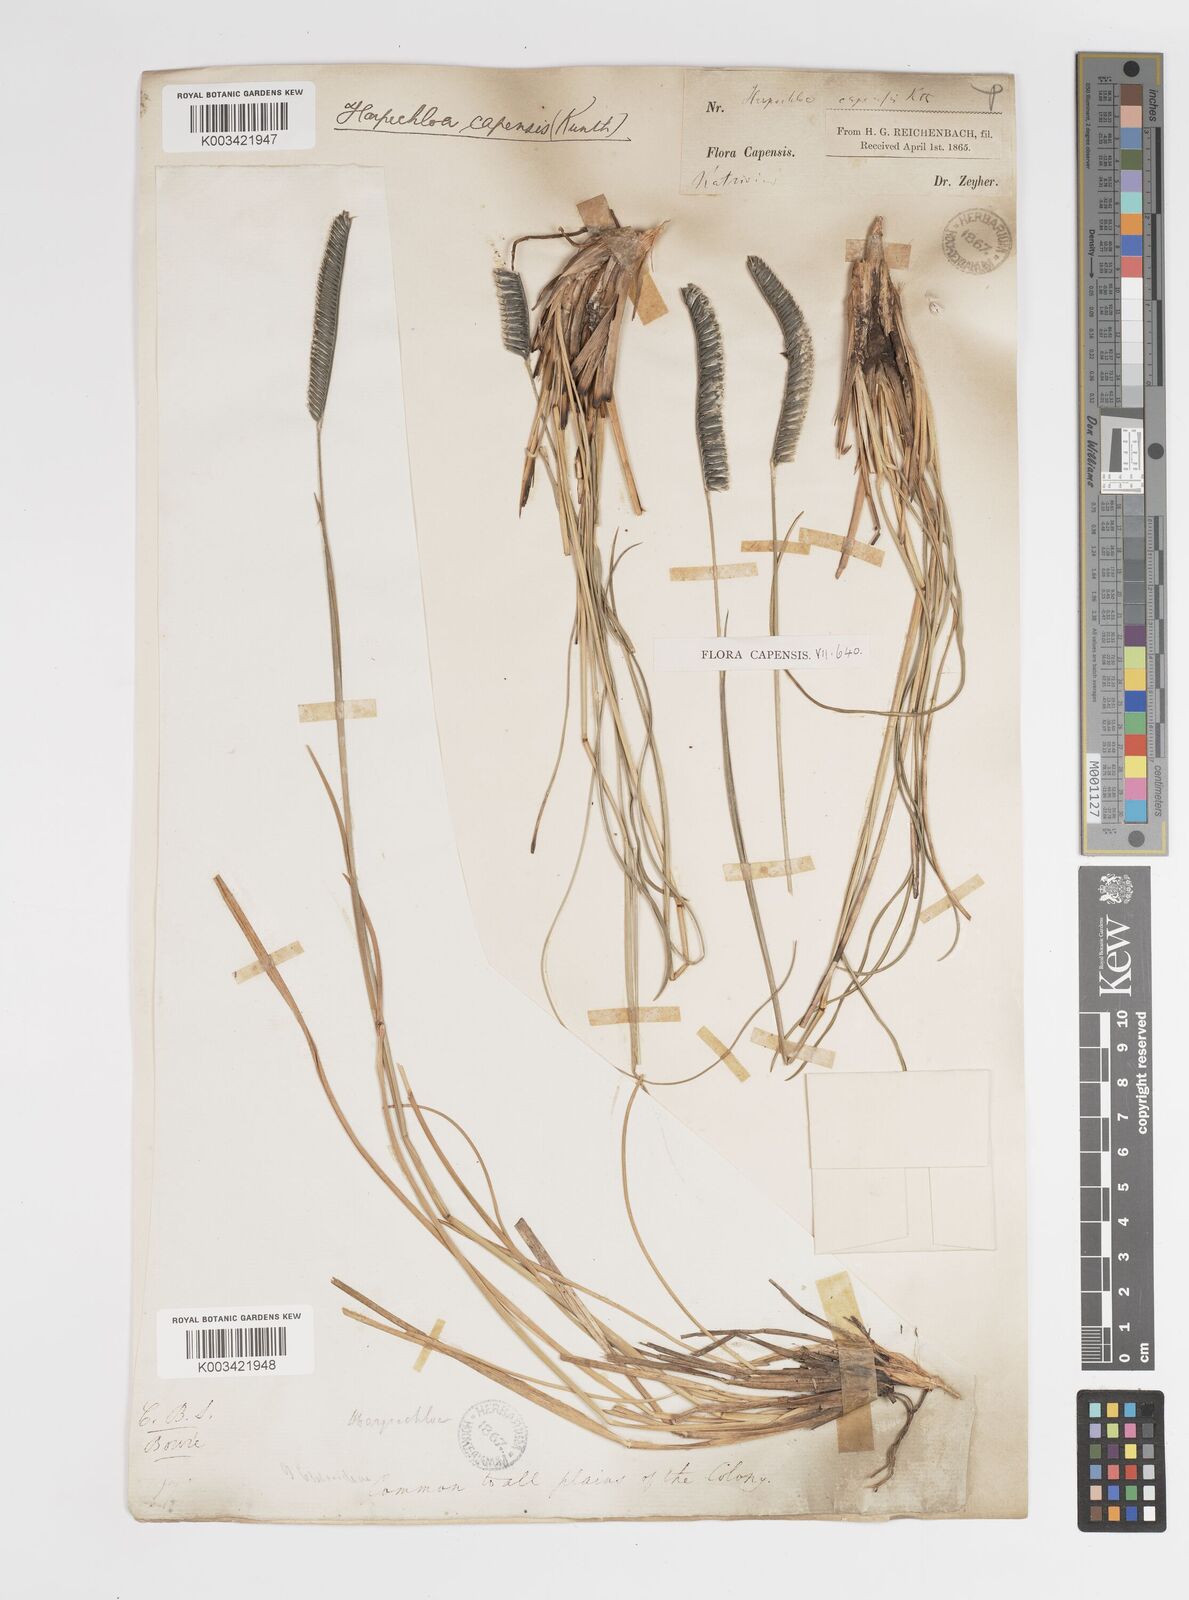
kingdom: Plantae
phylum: Tracheophyta
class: Liliopsida
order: Poales
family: Poaceae
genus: Harpochloa
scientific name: Harpochloa falx
